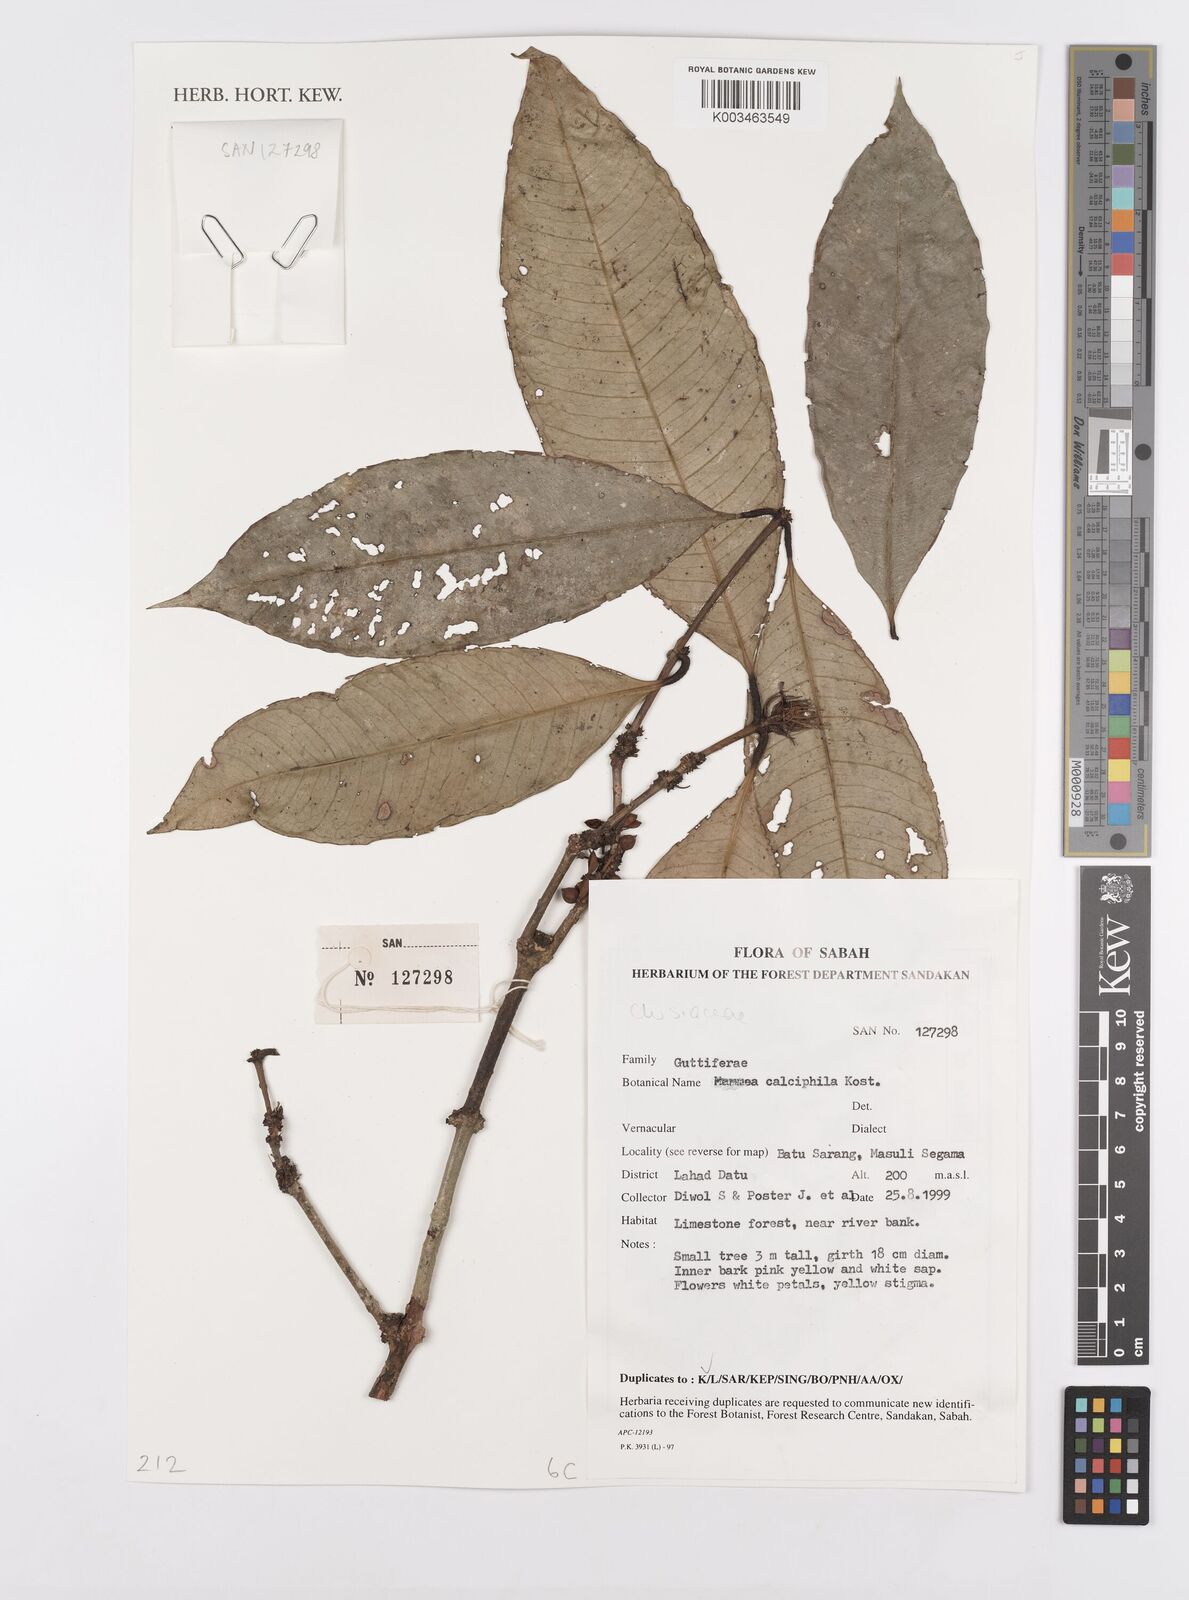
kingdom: Plantae
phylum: Tracheophyta
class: Magnoliopsida
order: Malpighiales
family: Calophyllaceae
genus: Mammea
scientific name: Mammea calciphila
